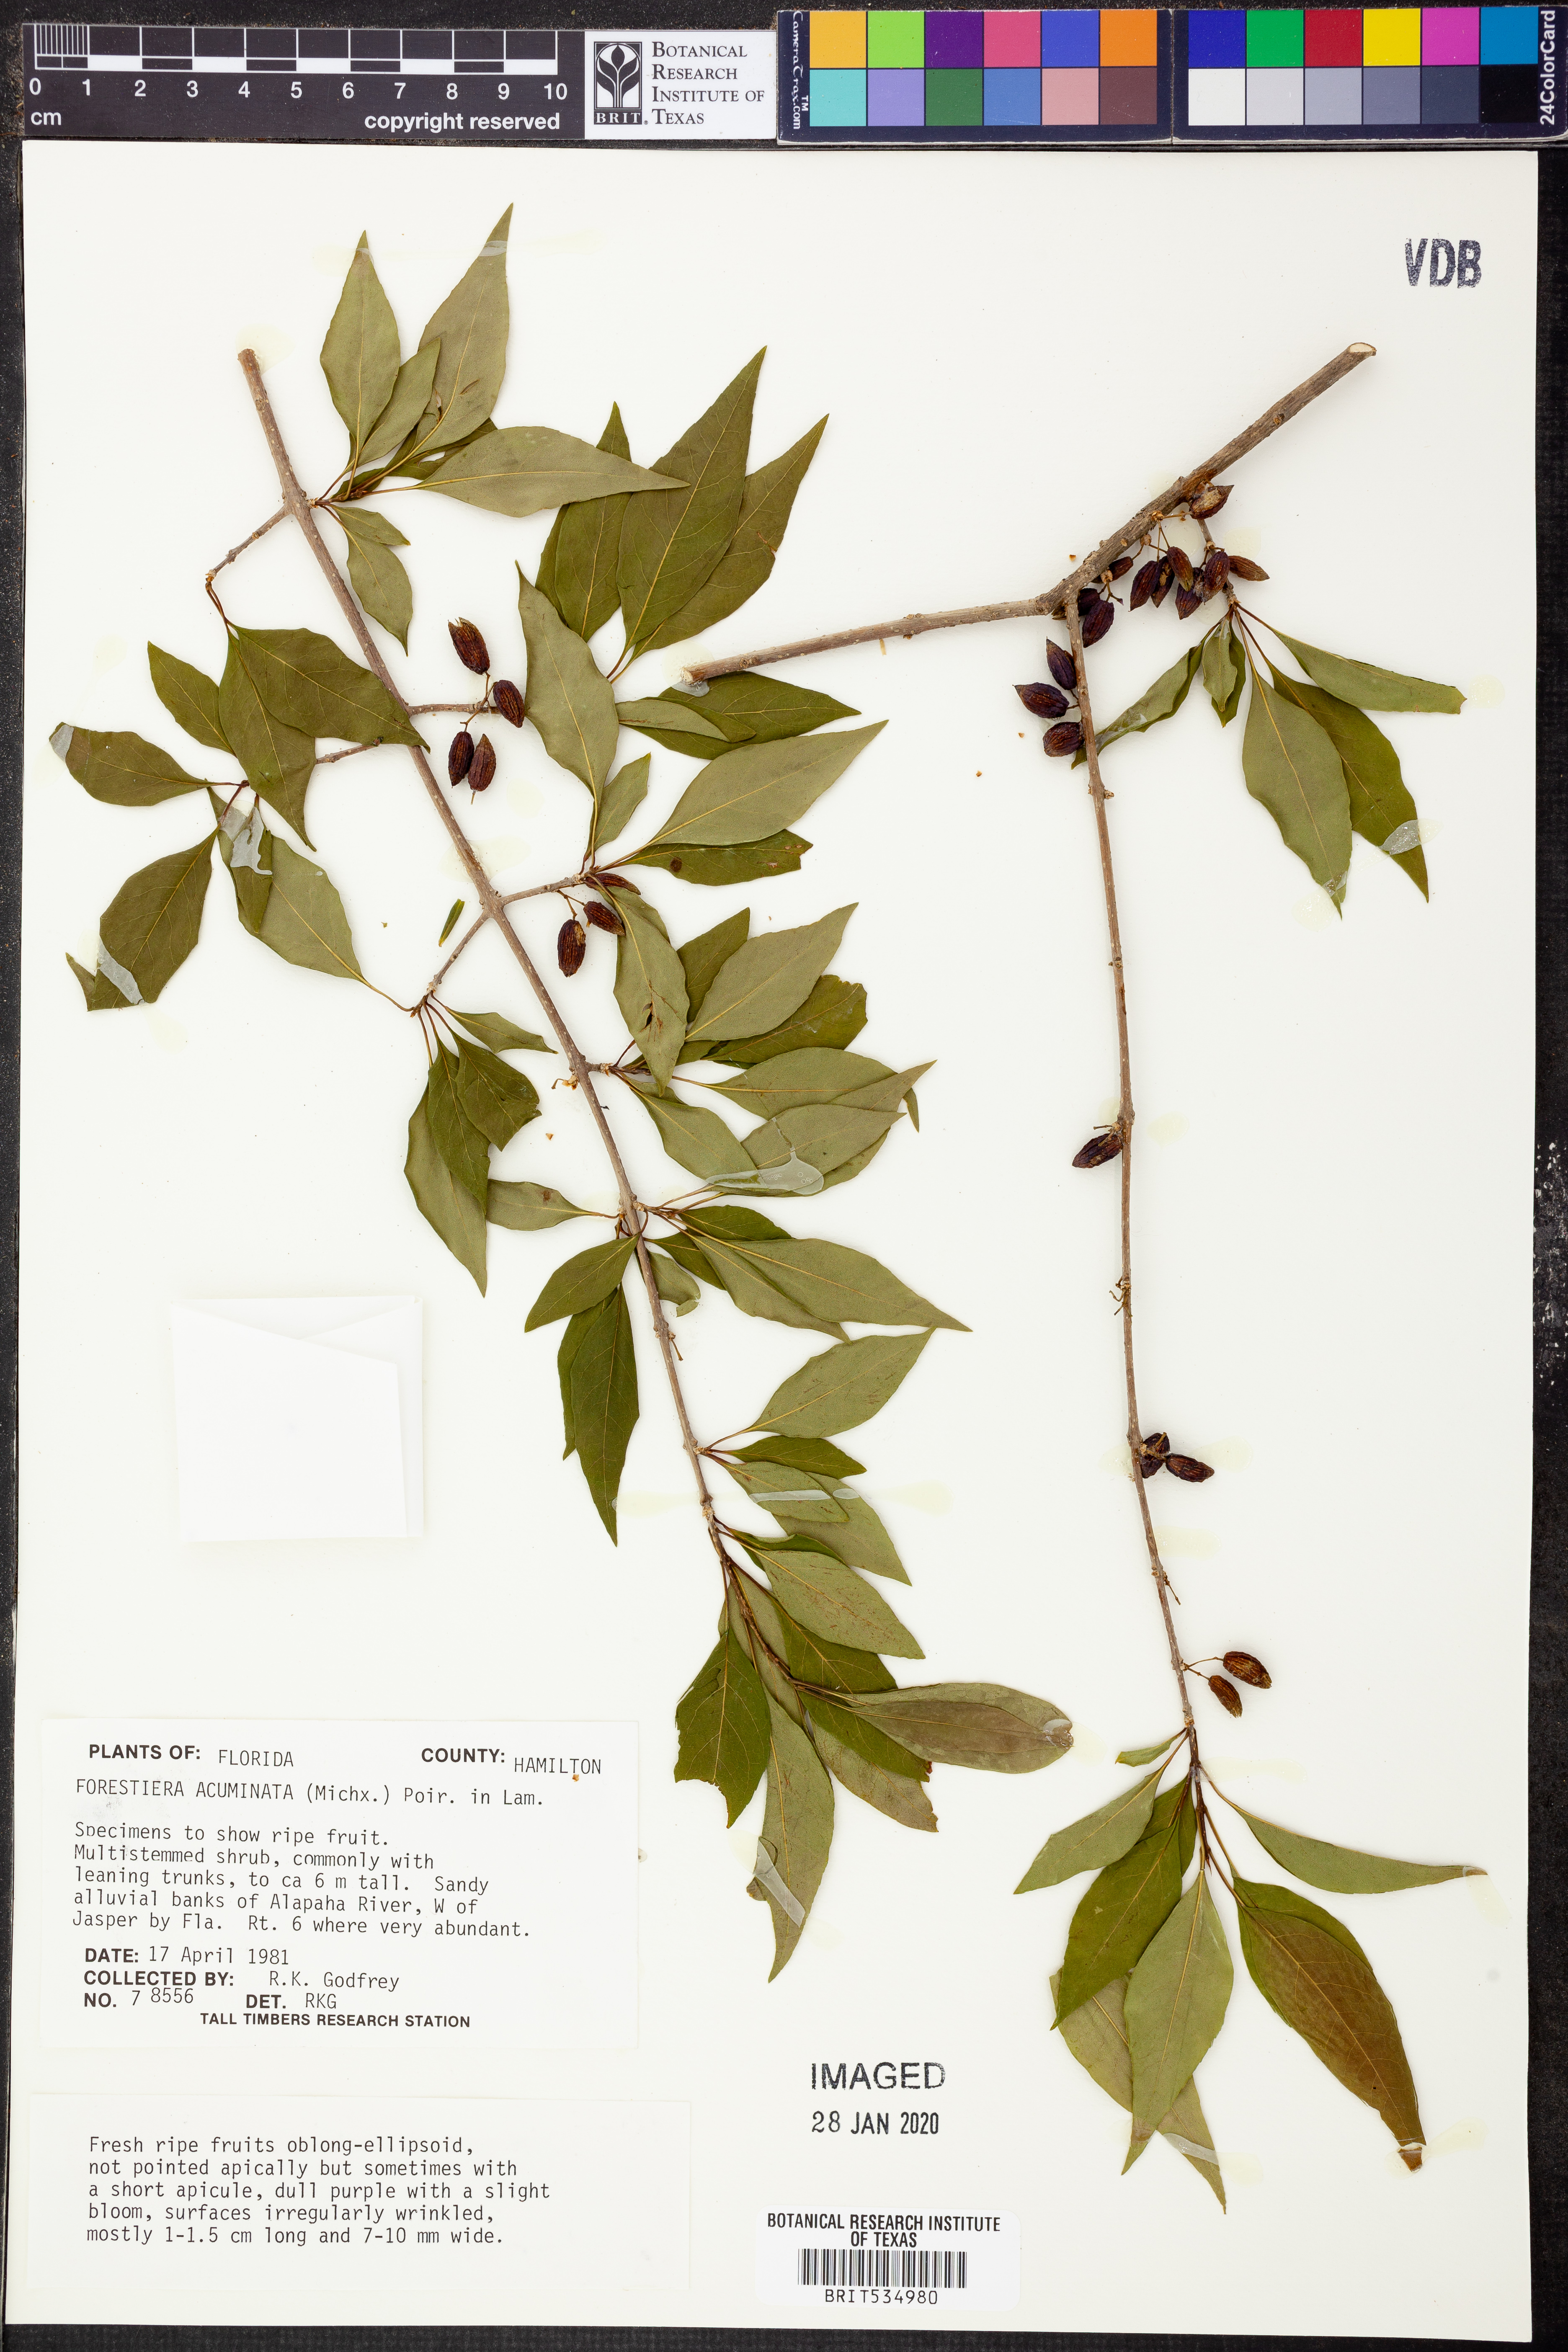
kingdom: Plantae
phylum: Tracheophyta
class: Magnoliopsida
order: Lamiales
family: Oleaceae
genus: Forestiera
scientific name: Forestiera acuminata
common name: Swamp-privet
